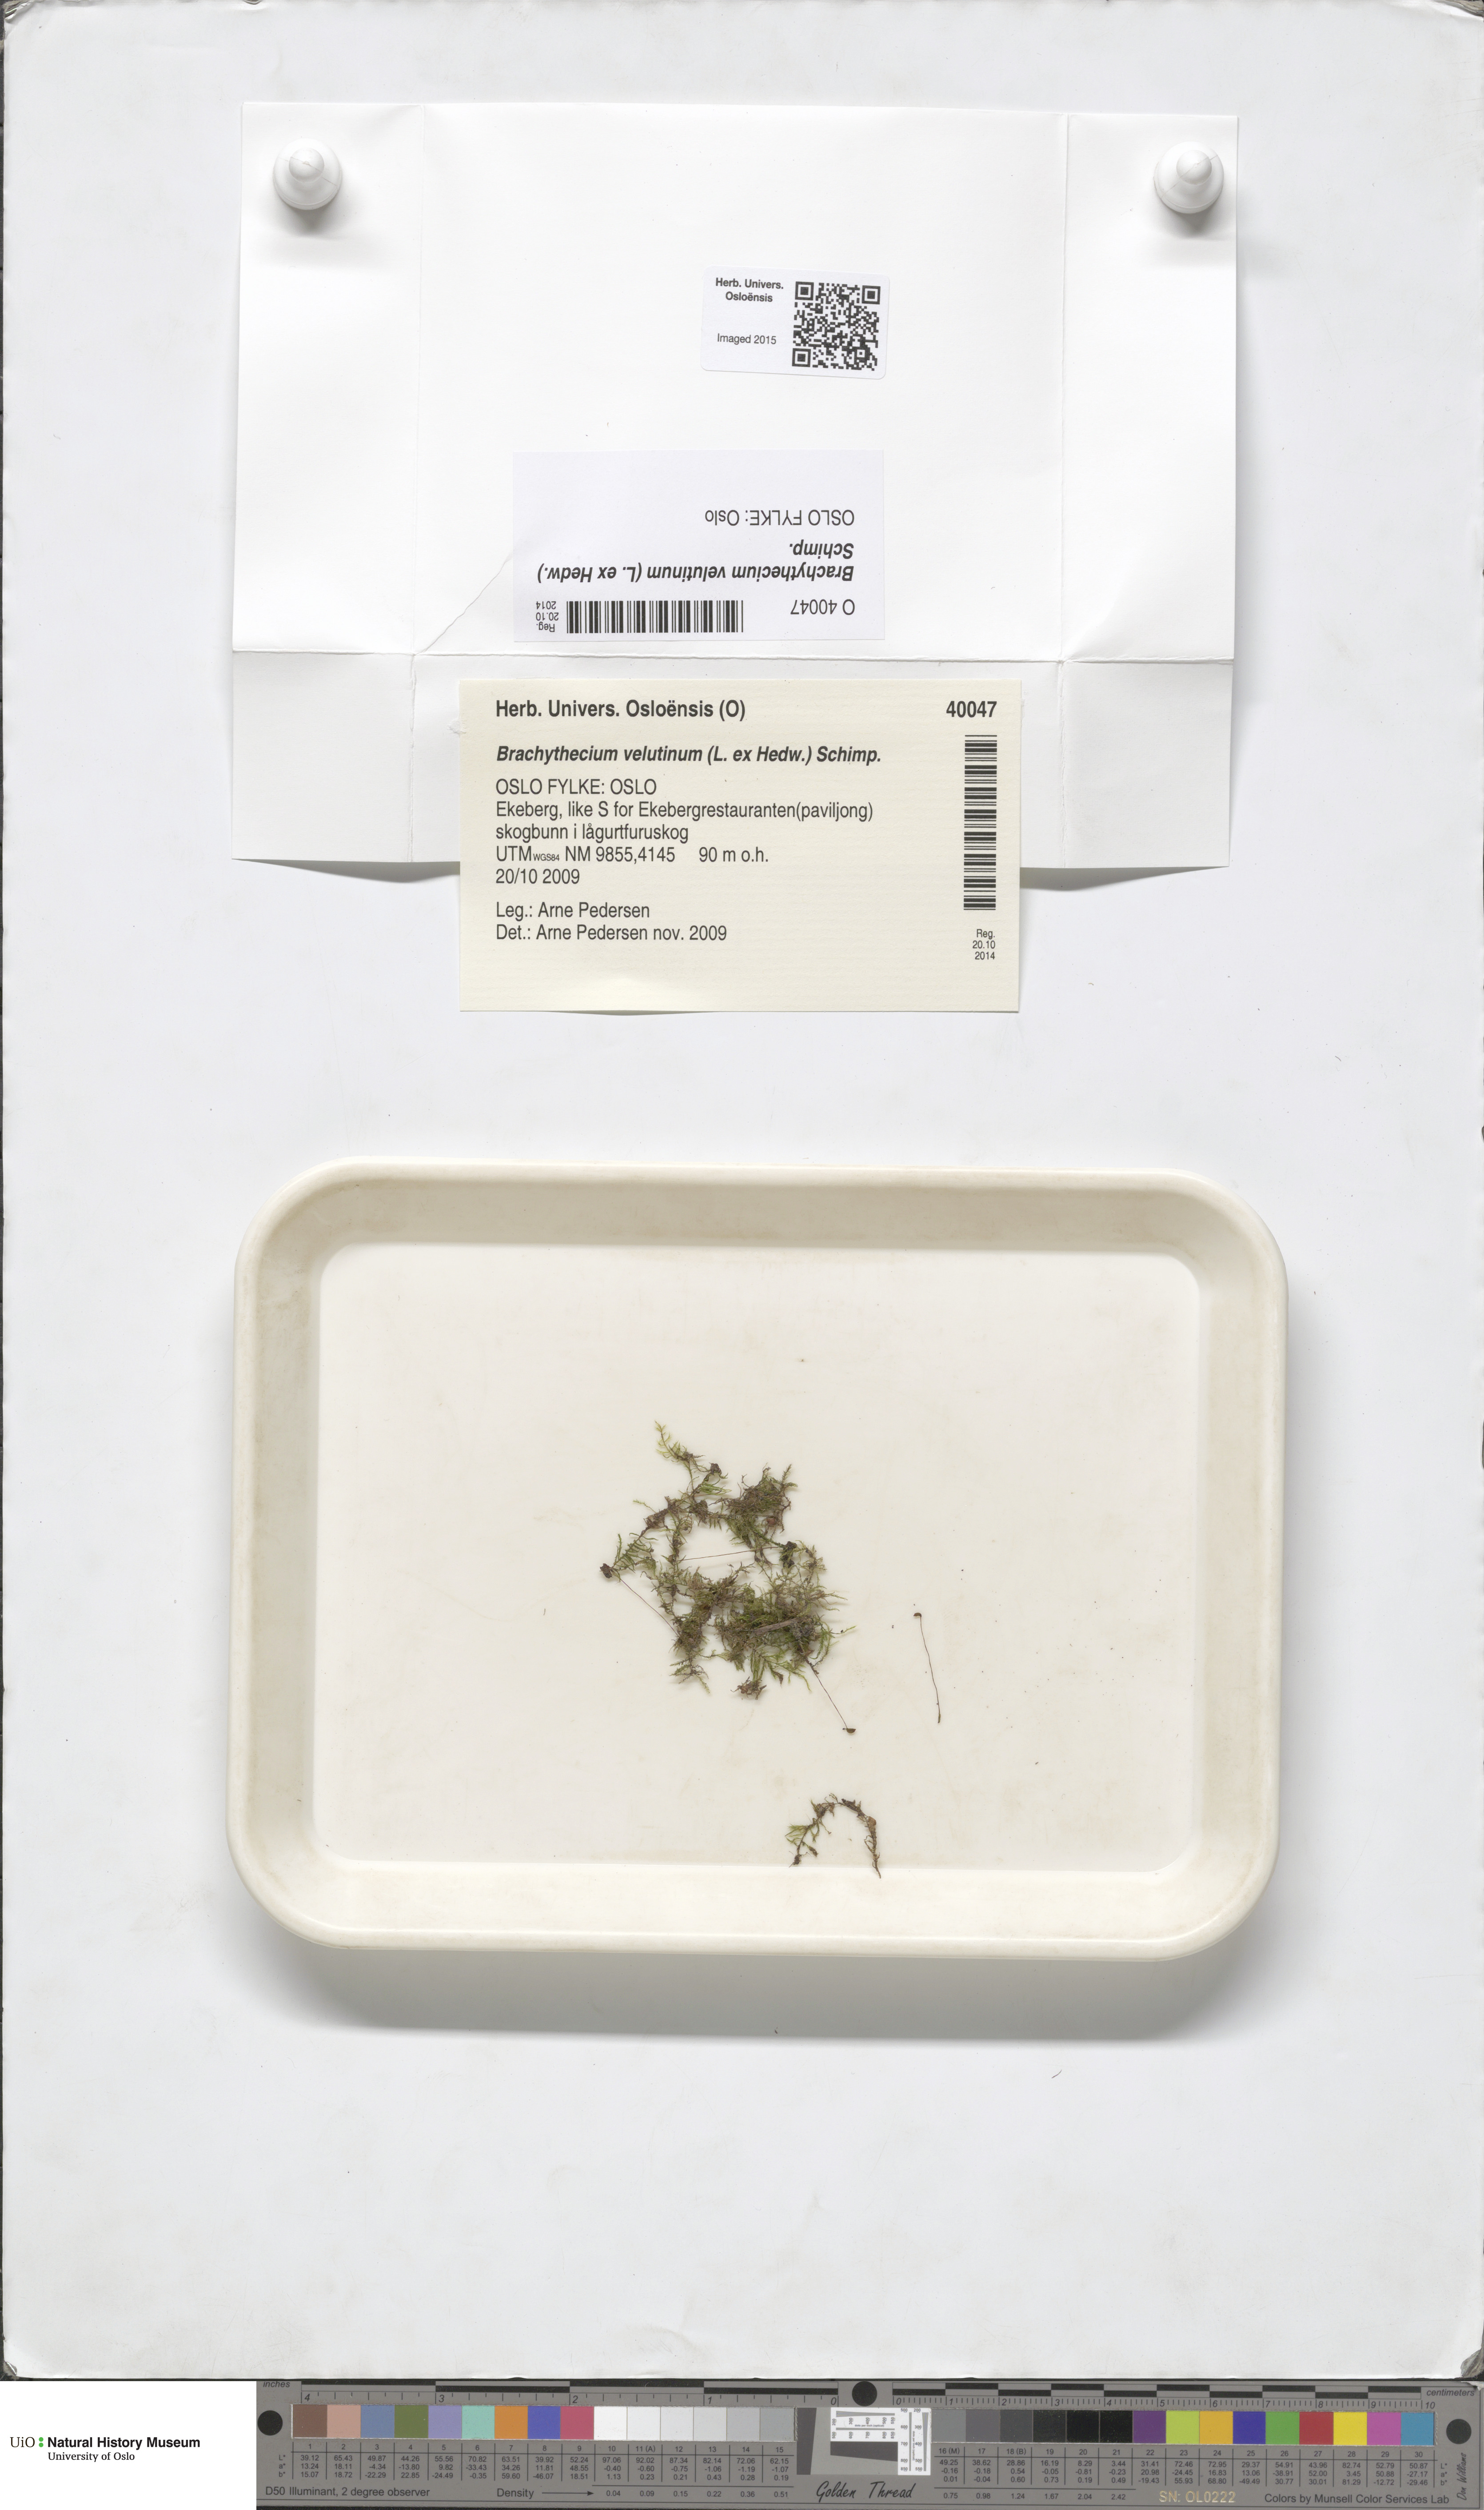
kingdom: Plantae
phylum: Bryophyta
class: Bryopsida
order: Hypnales
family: Brachytheciaceae
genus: Brachytheciastrum
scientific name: Brachytheciastrum velutinum
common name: Velvet feather-moss
